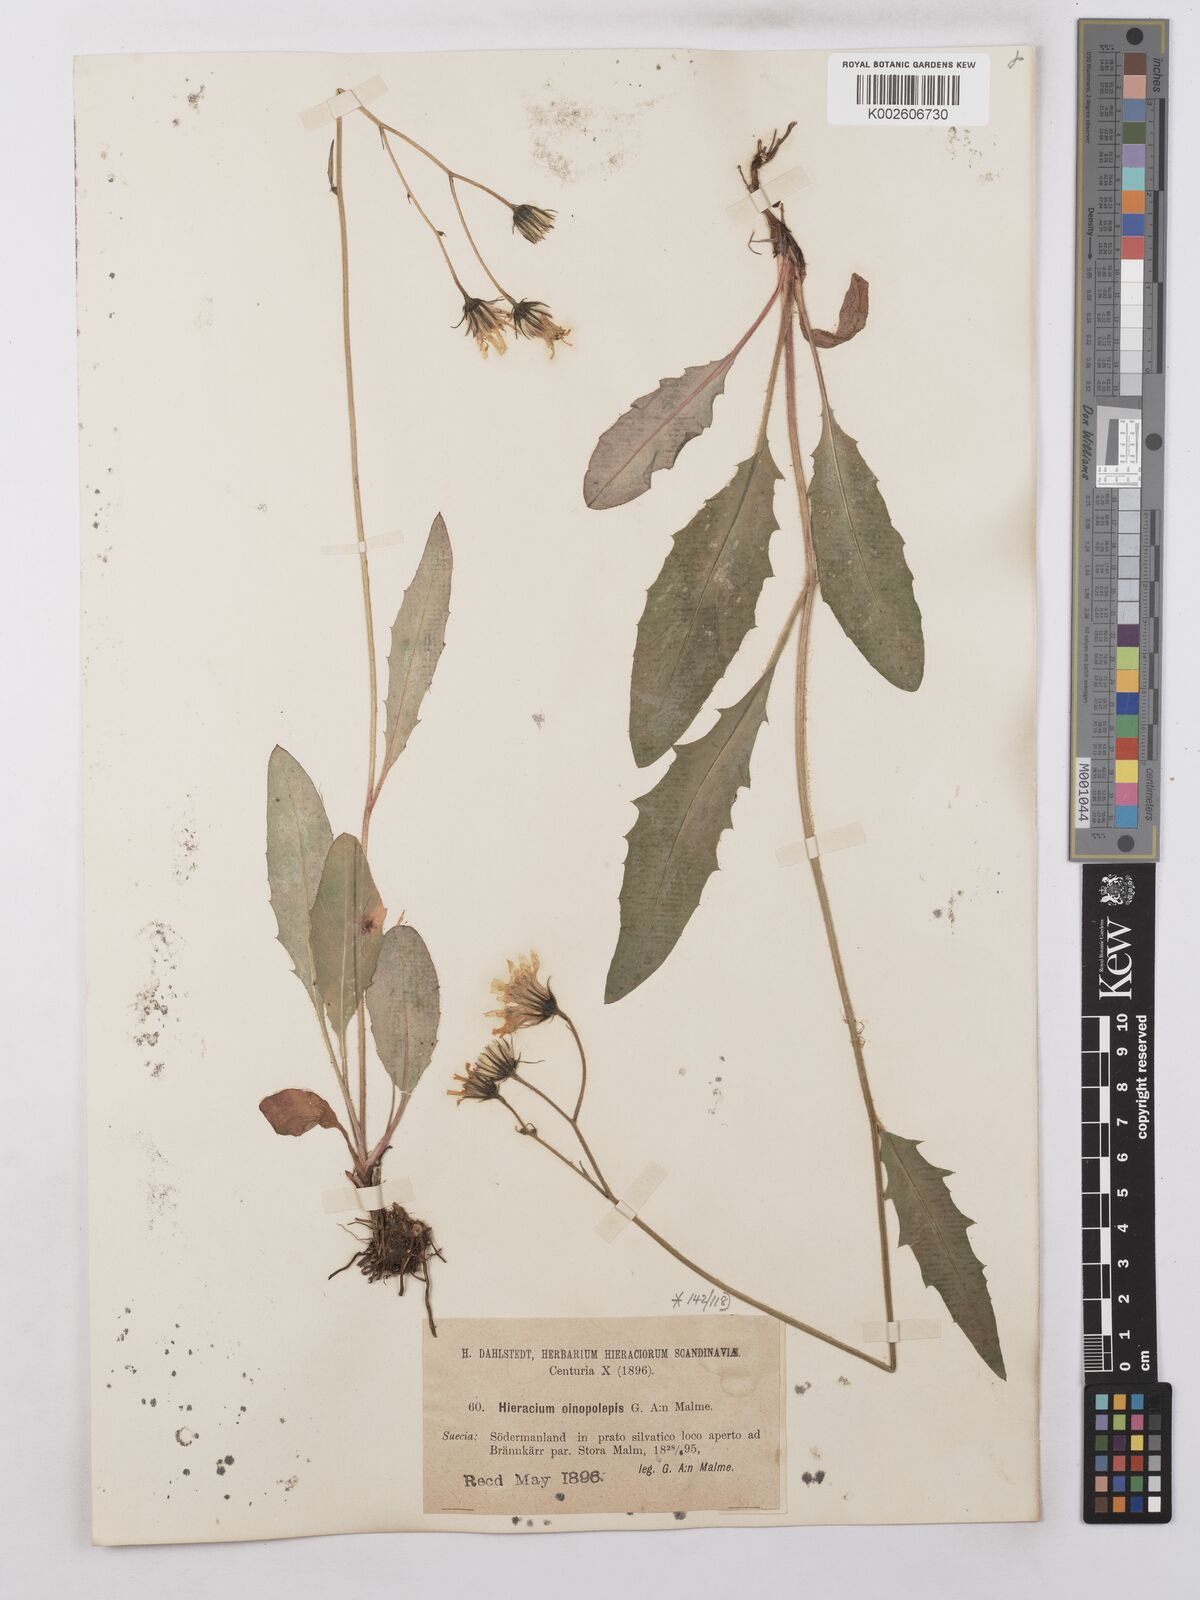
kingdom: Plantae
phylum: Tracheophyta
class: Magnoliopsida
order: Asterales
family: Asteraceae
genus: Hieracium
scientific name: Hieracium lachenalii
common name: Common hawkweed
